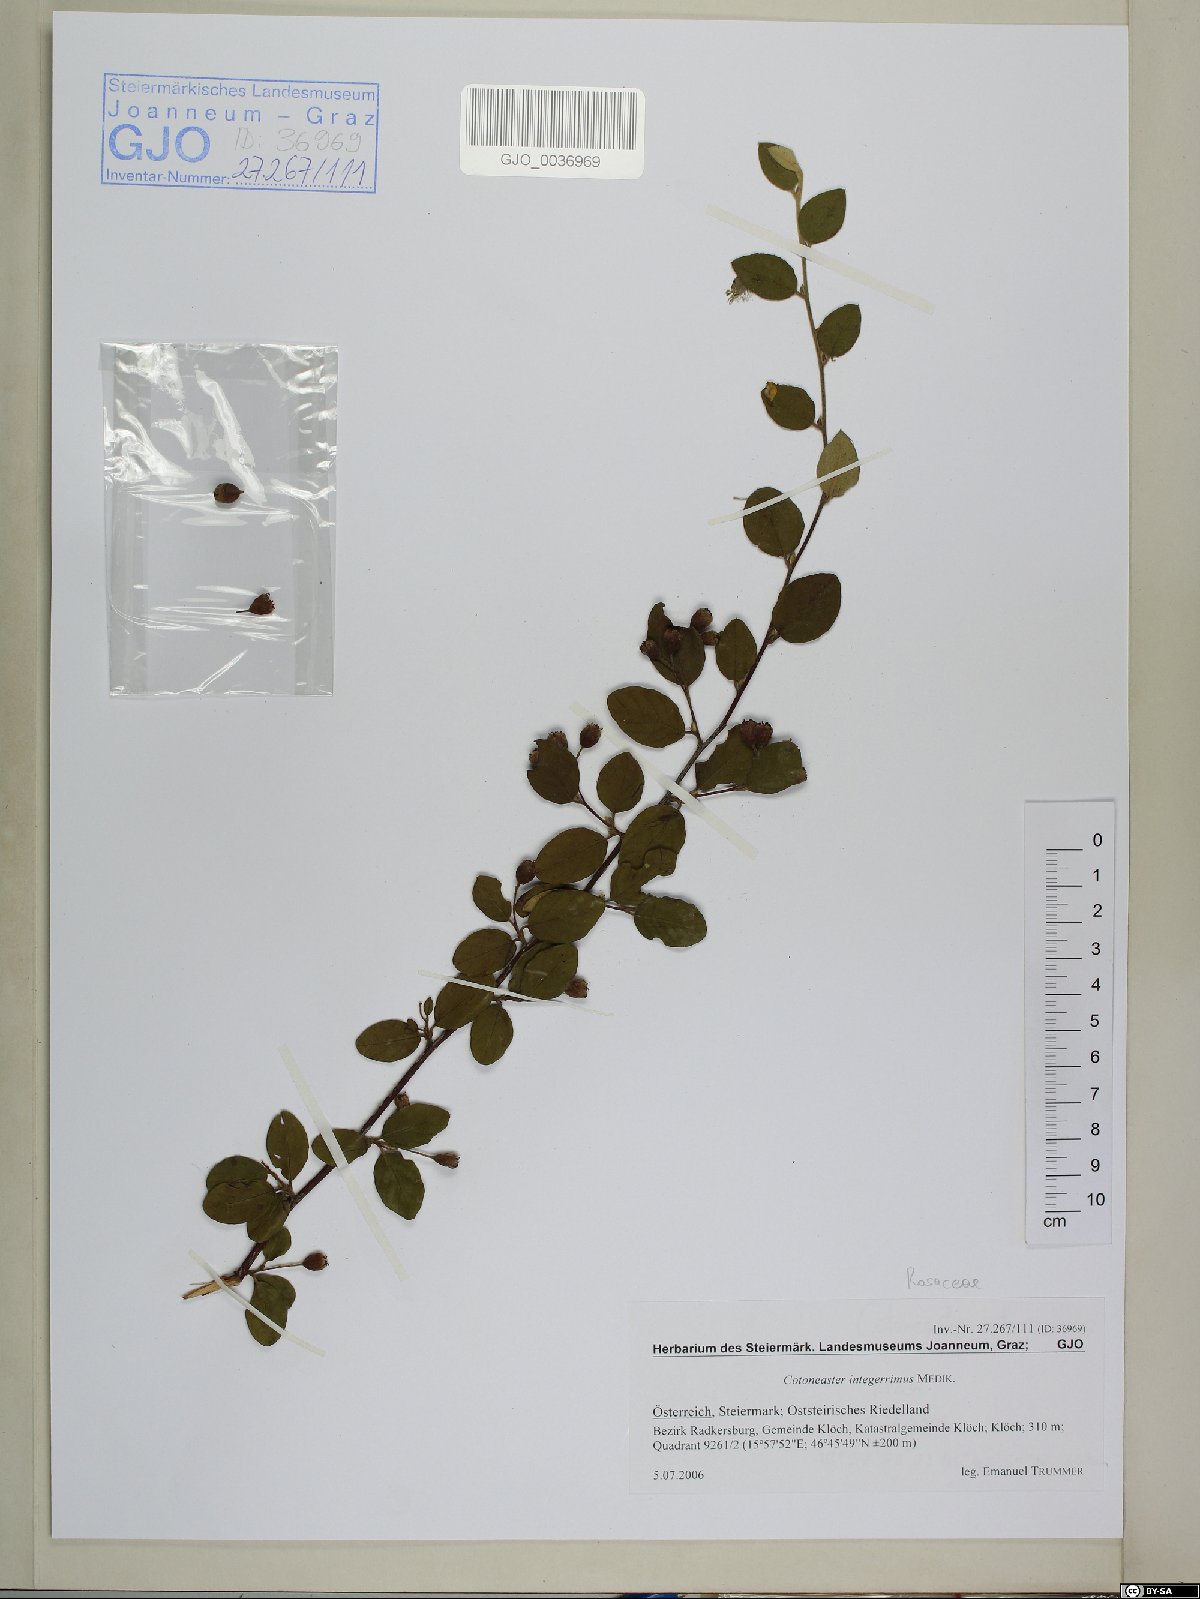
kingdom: Plantae
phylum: Tracheophyta
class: Magnoliopsida
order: Rosales
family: Rosaceae
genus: Cotoneaster
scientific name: Cotoneaster integerrimus
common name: Wild cotoneaster
